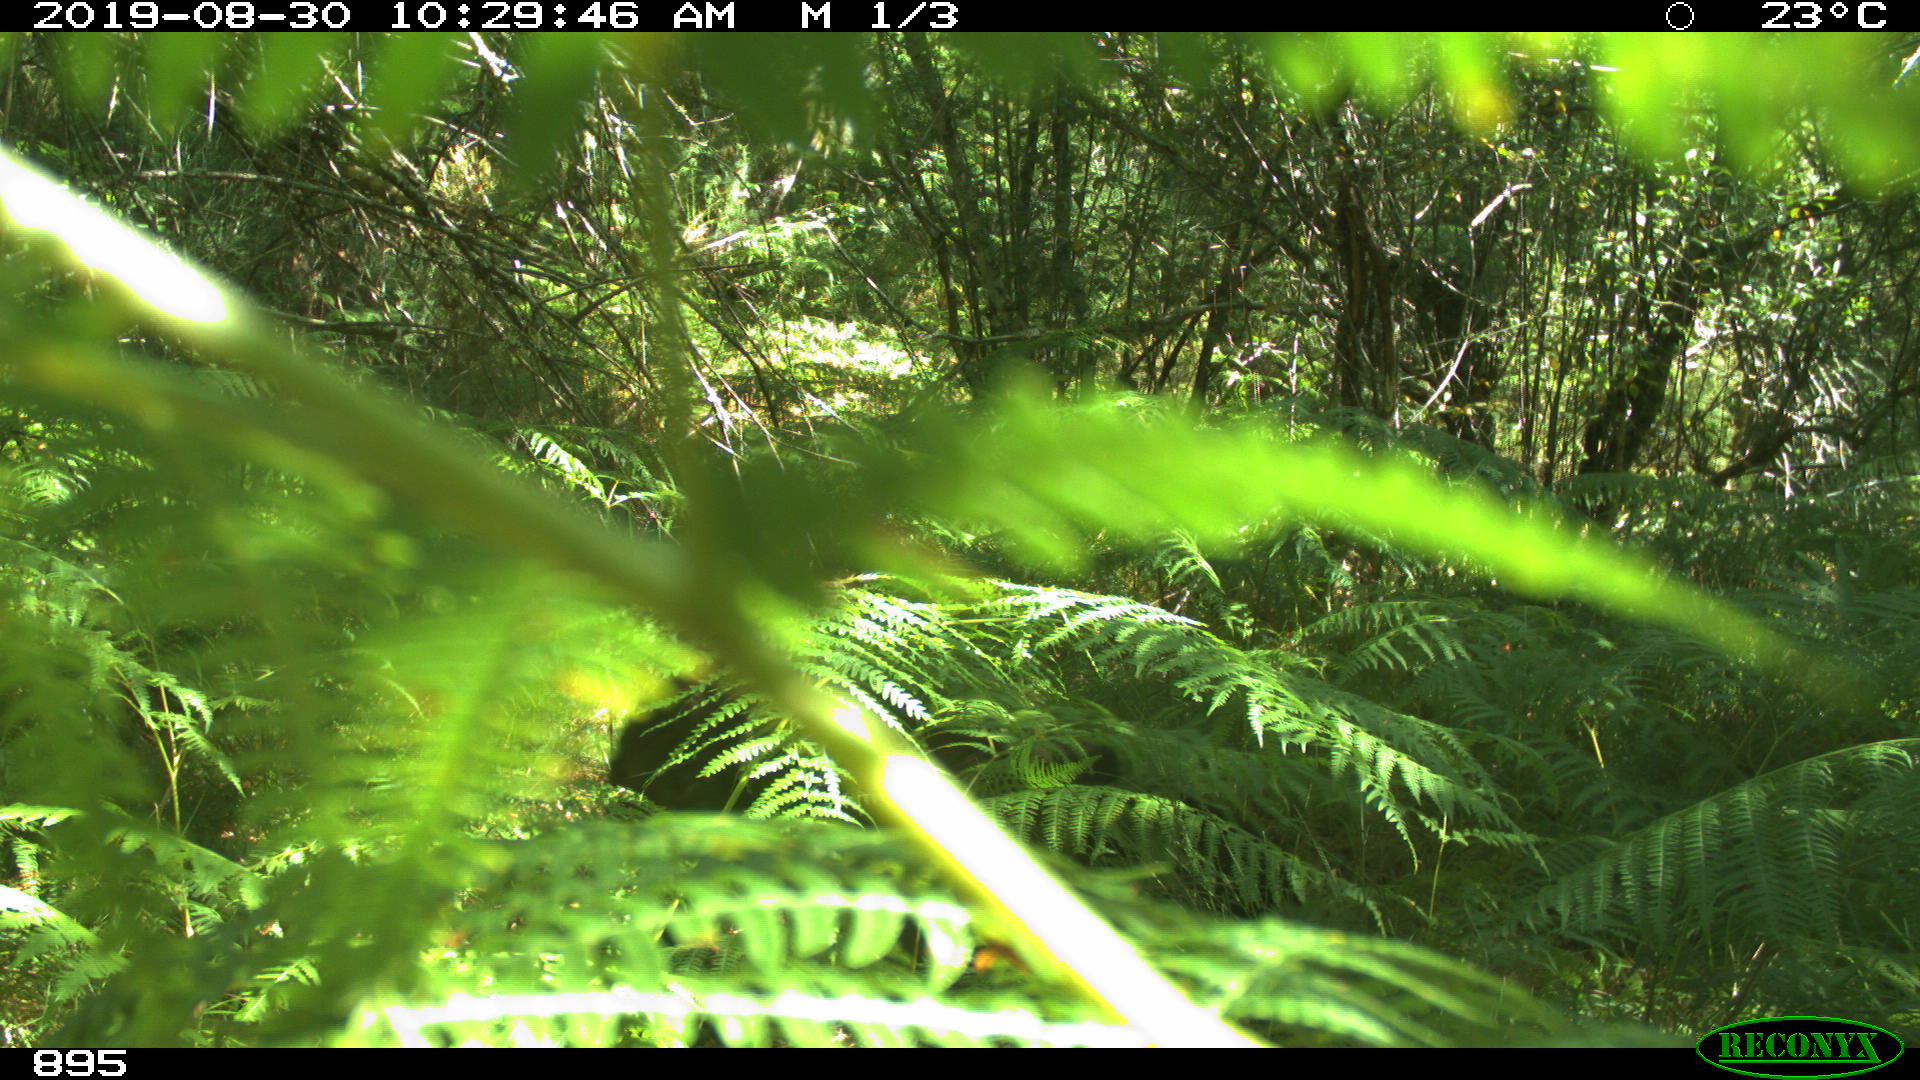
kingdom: Animalia
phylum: Chordata
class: Mammalia
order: Artiodactyla
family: Suidae
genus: Sus
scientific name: Sus scrofa
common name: Wild boar
